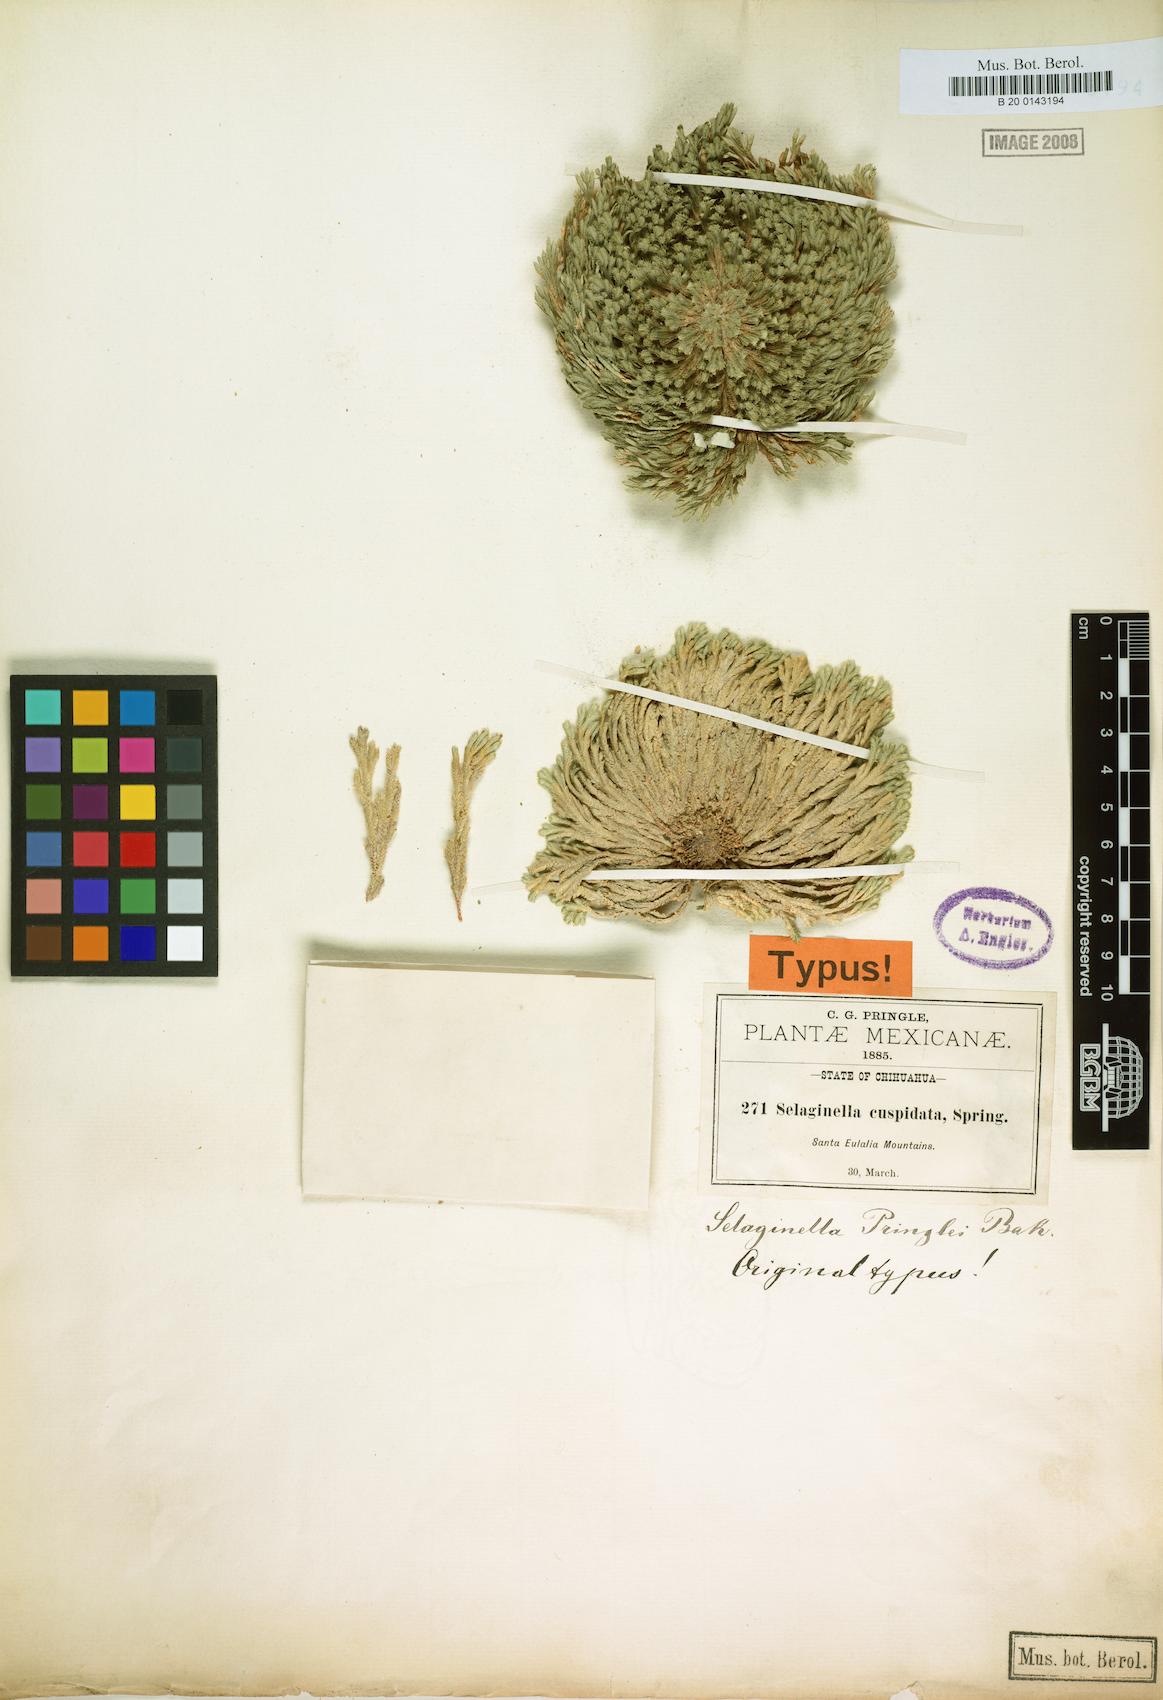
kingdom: Plantae
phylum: Tracheophyta
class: Lycopodiopsida
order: Selaginellales
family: Selaginellaceae
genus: Selaginella
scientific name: Selaginella pilifera
